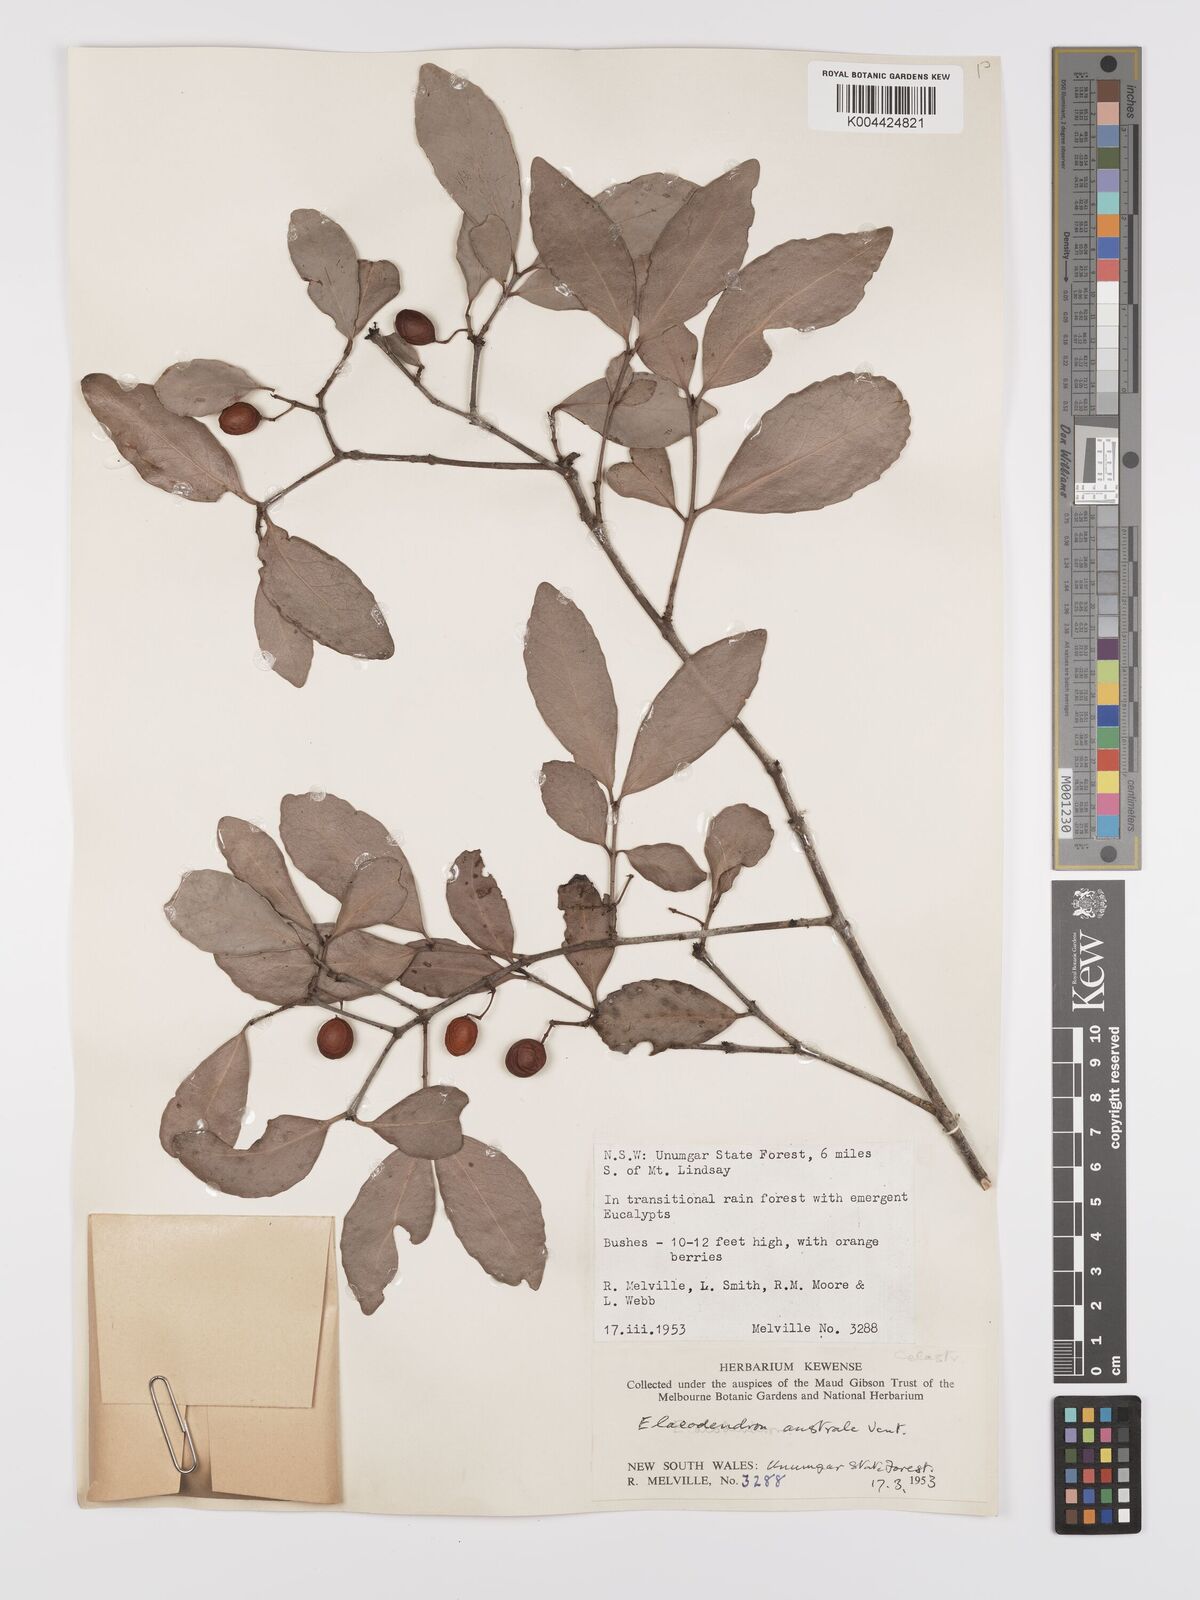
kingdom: Plantae
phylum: Tracheophyta
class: Magnoliopsida
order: Celastrales
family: Celastraceae
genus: Elaeodendron
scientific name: Elaeodendron australe
